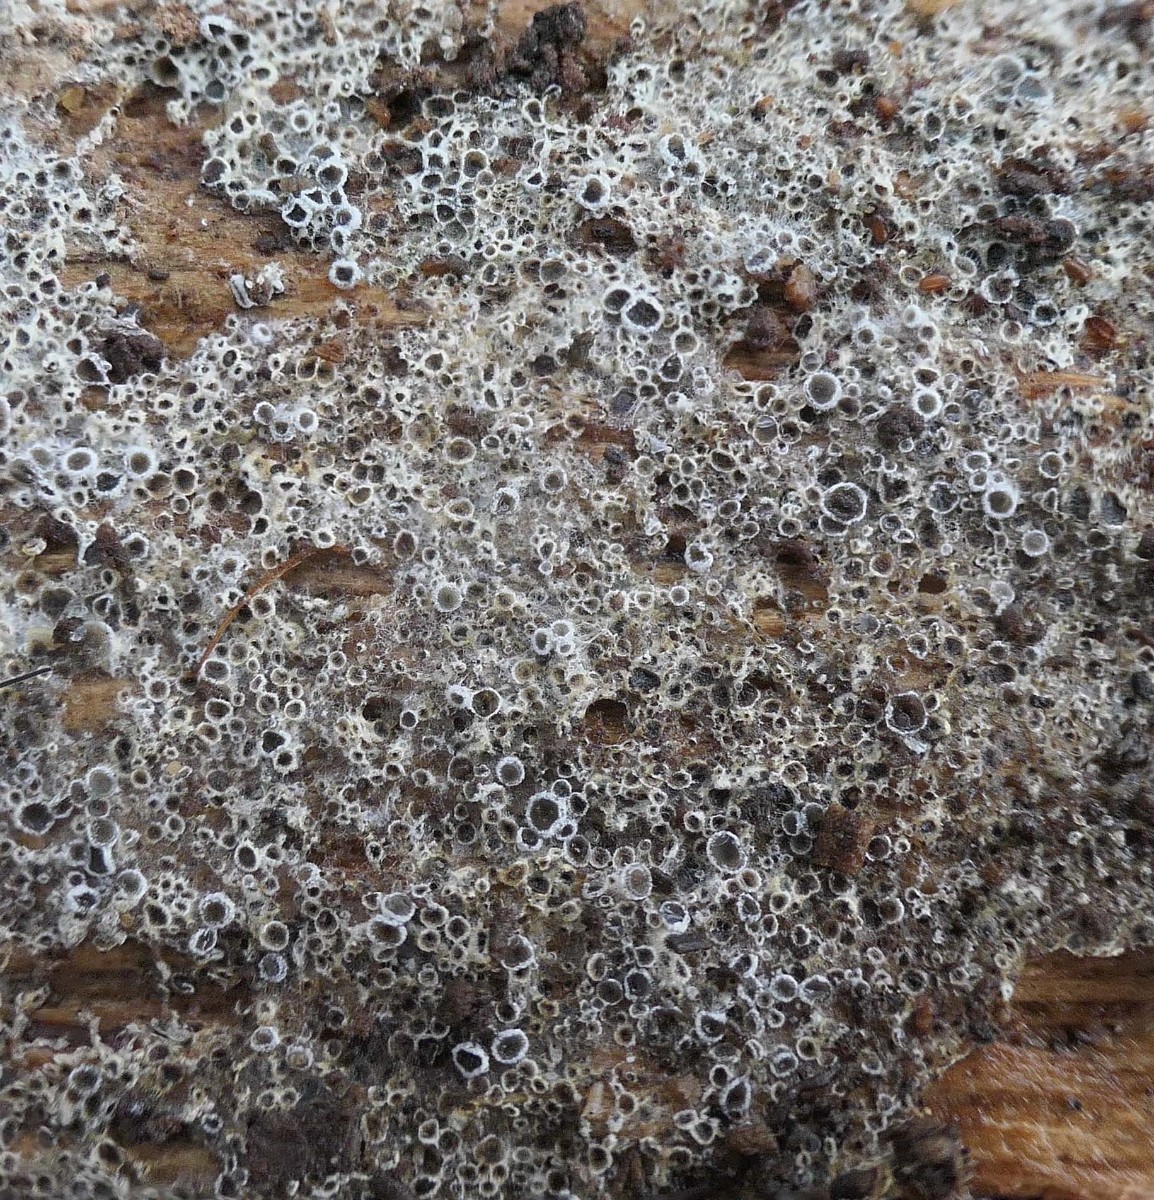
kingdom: Fungi
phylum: Ascomycota
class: Leotiomycetes
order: Helotiales
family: Arachnopezizaceae
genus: Eriopezia
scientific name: Eriopezia caesia
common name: ege-spindskive
